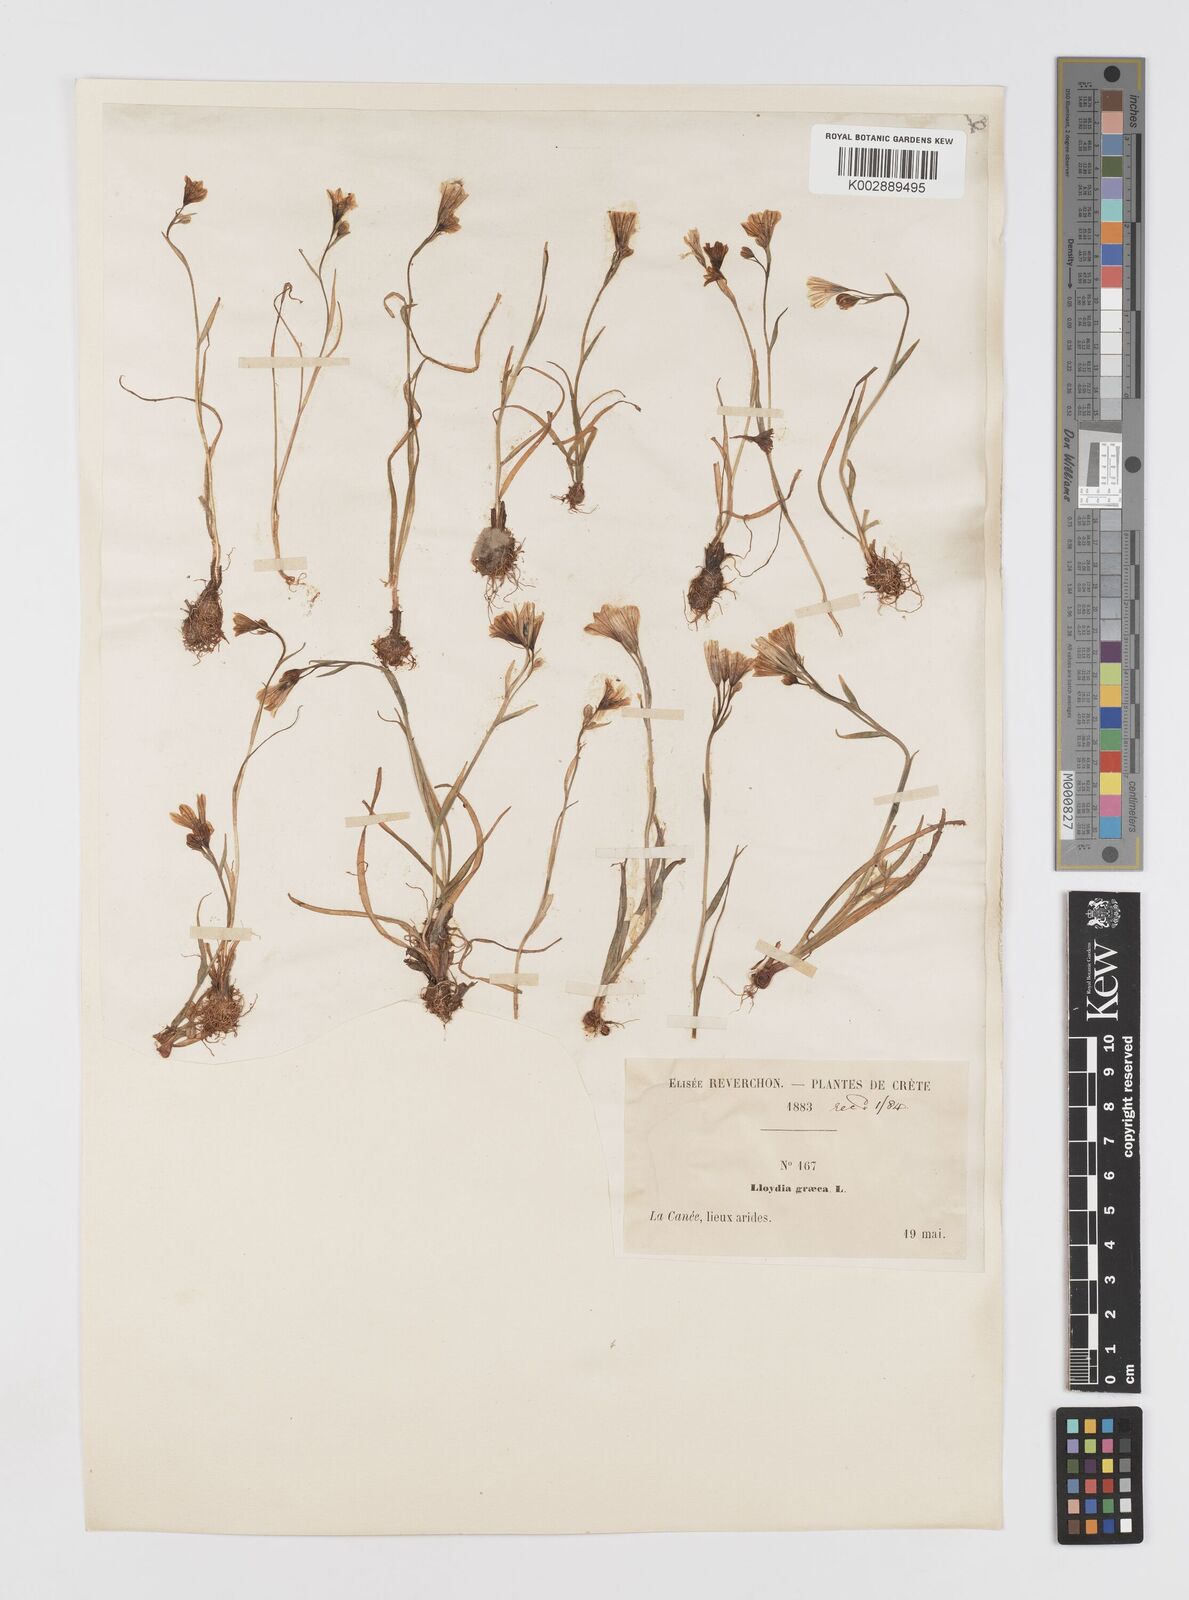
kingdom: Plantae
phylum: Tracheophyta
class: Liliopsida
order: Liliales
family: Liliaceae
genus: Gagea
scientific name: Gagea graeca
